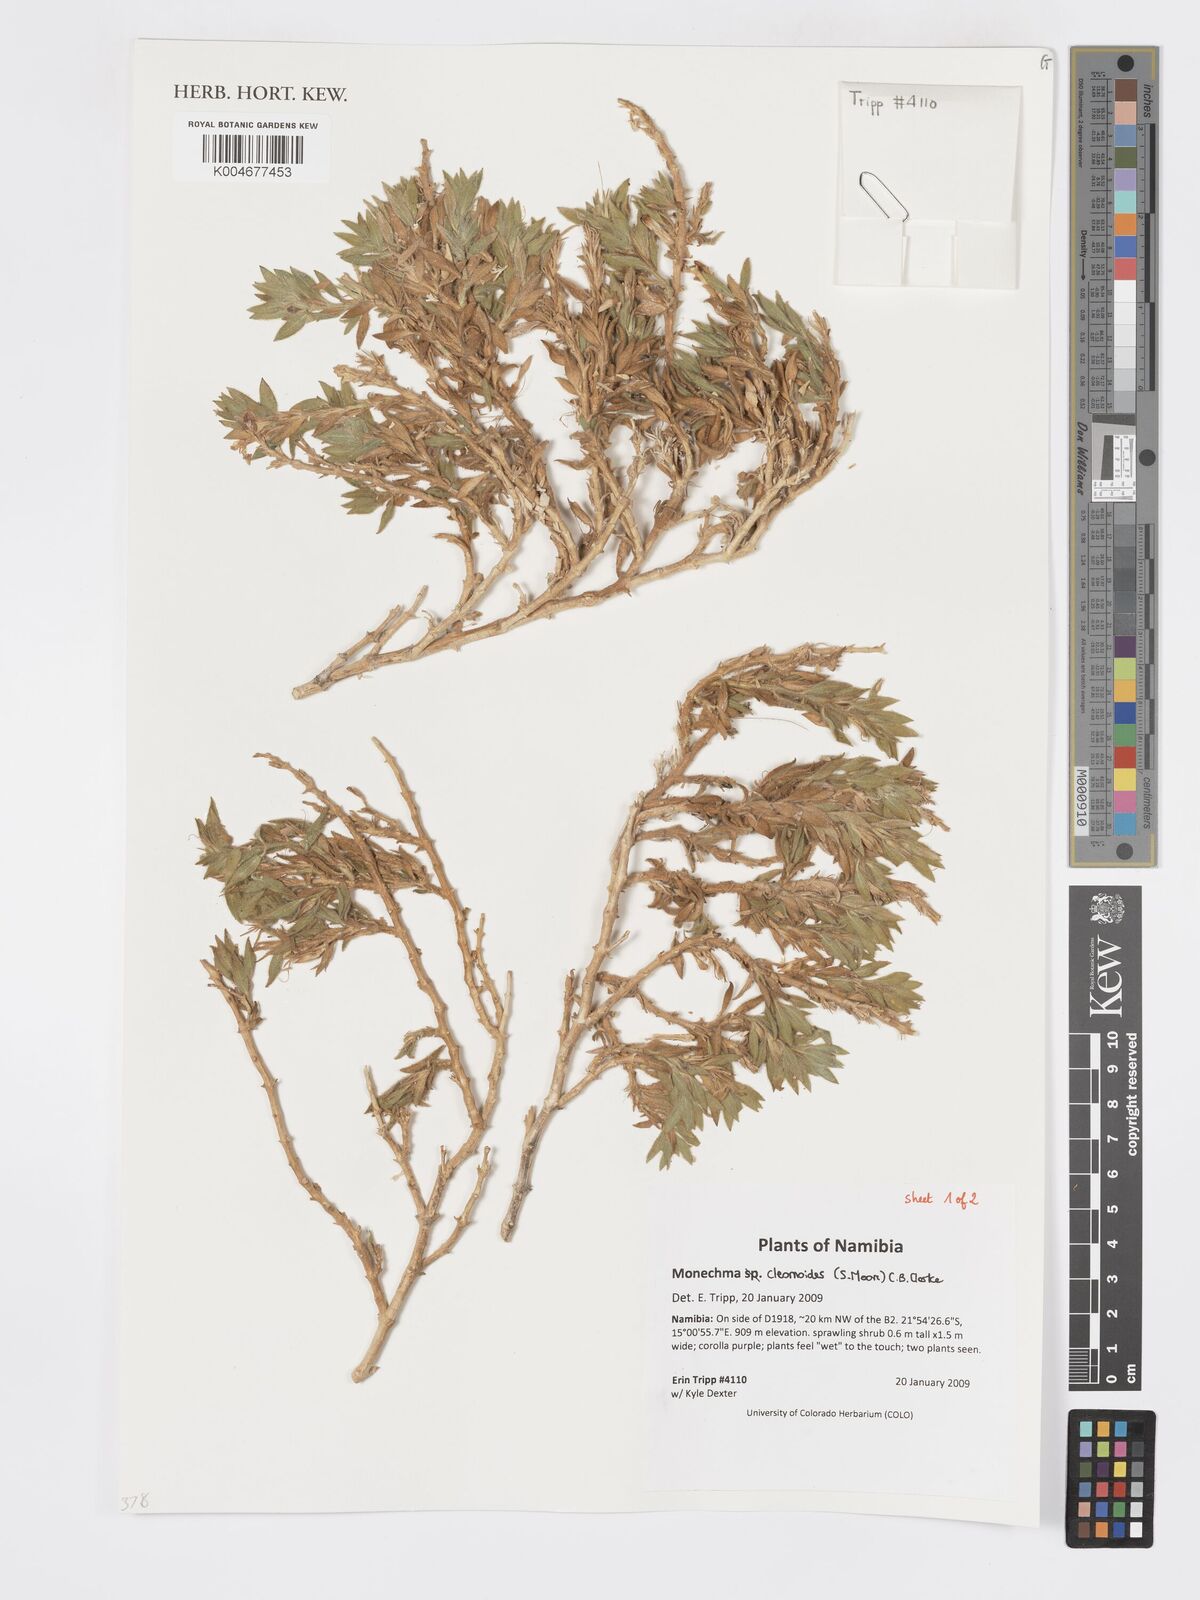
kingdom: Plantae
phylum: Tracheophyta
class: Magnoliopsida
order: Lamiales
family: Acanthaceae
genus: Pogonospermum
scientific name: Pogonospermum
